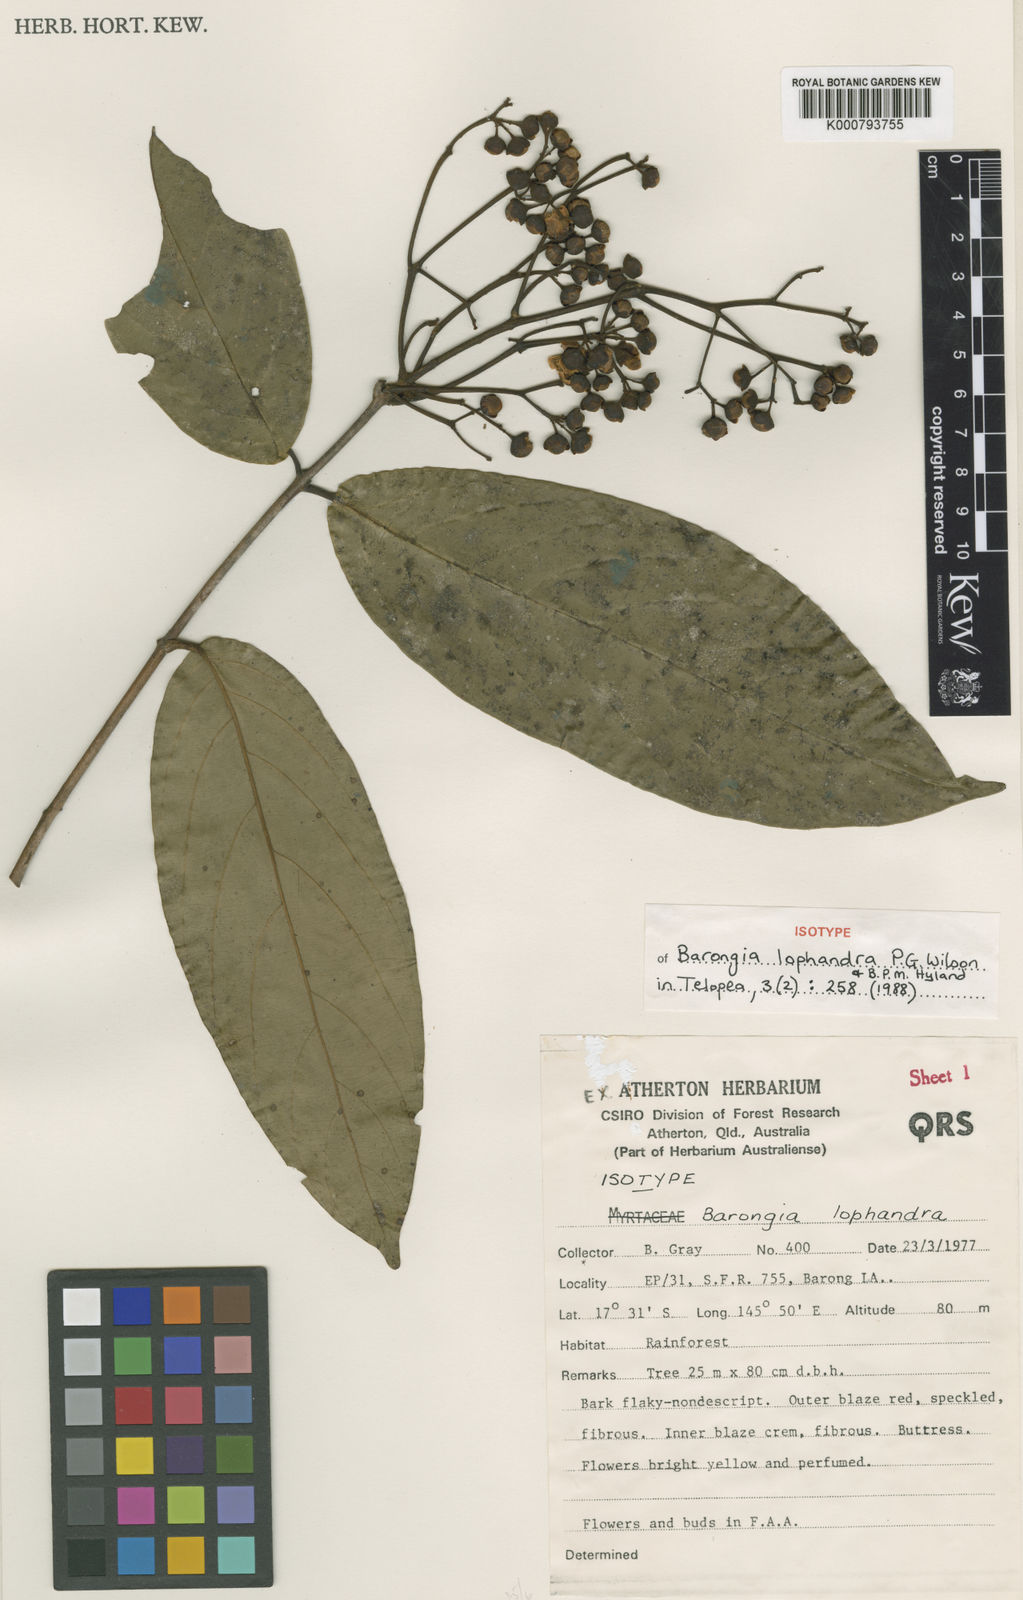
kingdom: Plantae
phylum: Tracheophyta
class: Magnoliopsida
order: Myrtales
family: Myrtaceae
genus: Barongia
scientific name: Barongia lophandra
